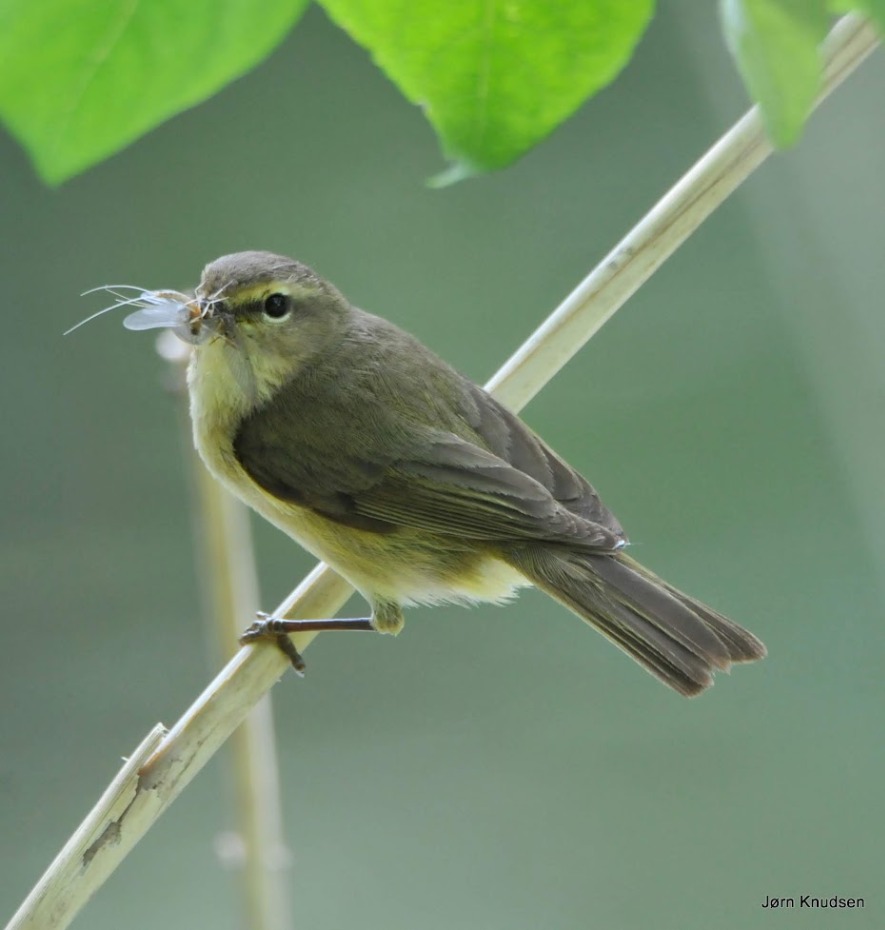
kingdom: Animalia
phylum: Chordata
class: Aves
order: Passeriformes
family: Phylloscopidae
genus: Phylloscopus
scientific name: Phylloscopus collybita
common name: Gransanger
